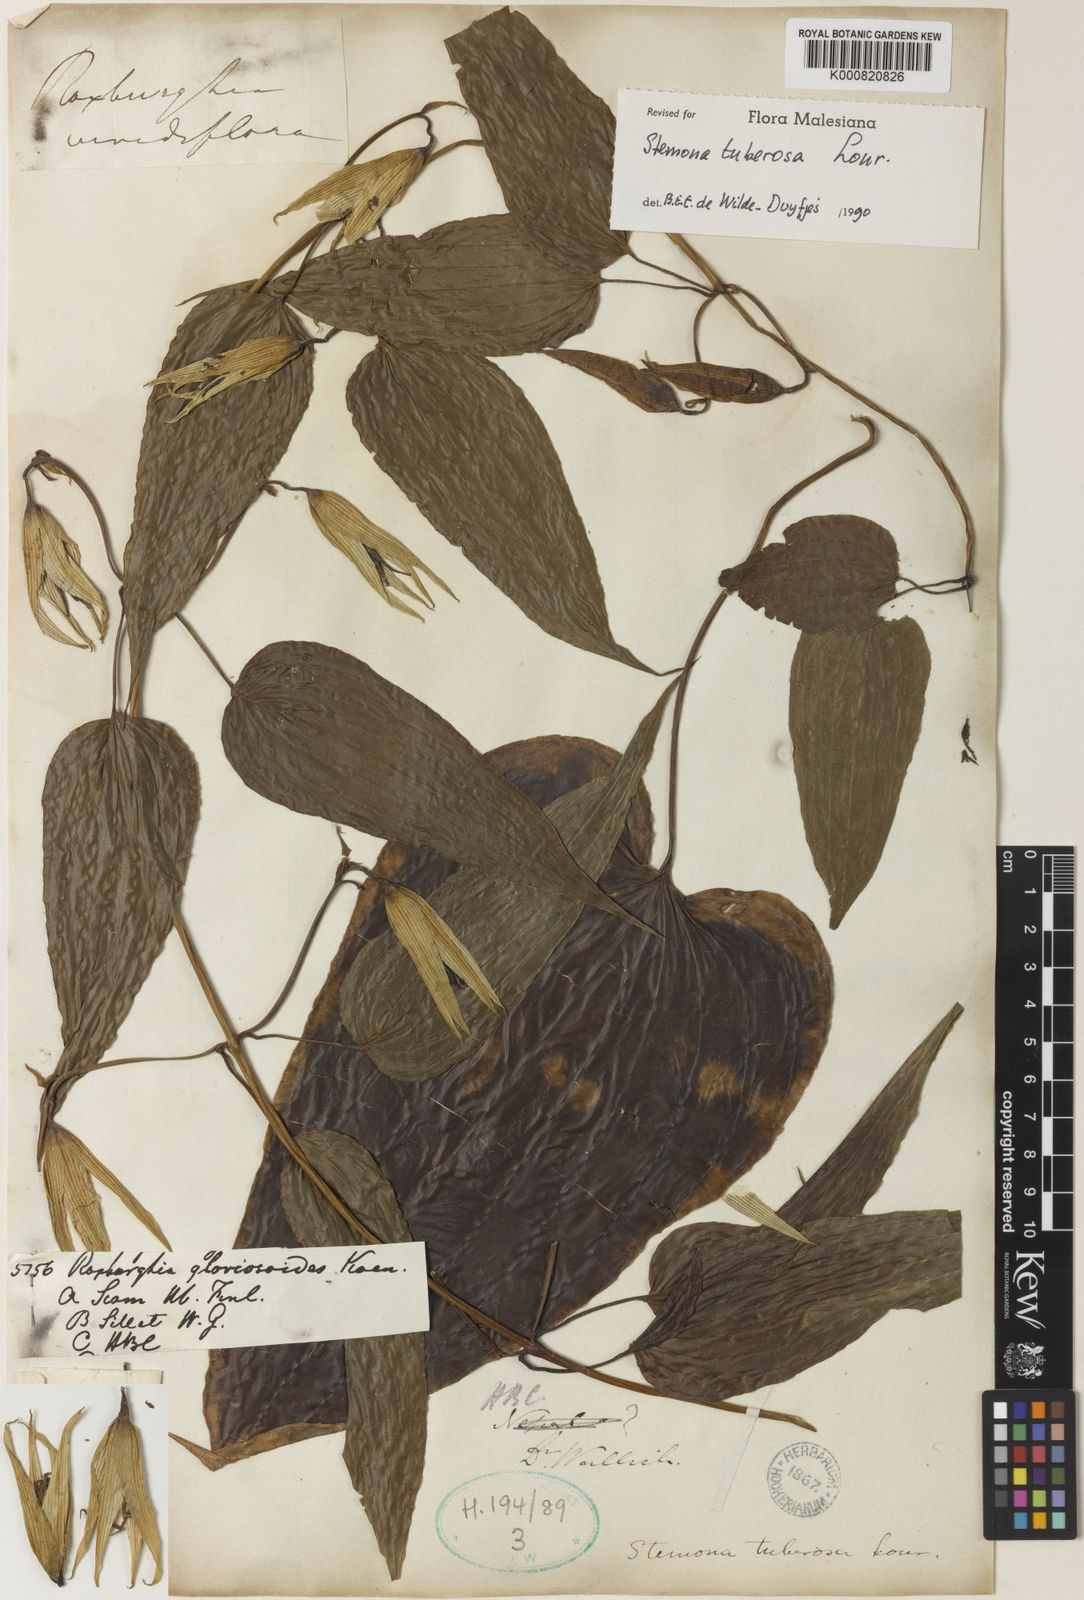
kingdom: Plantae
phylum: Tracheophyta
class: Liliopsida
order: Pandanales
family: Stemonaceae
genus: Stemona
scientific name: Stemona tuberosa
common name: Stemona
